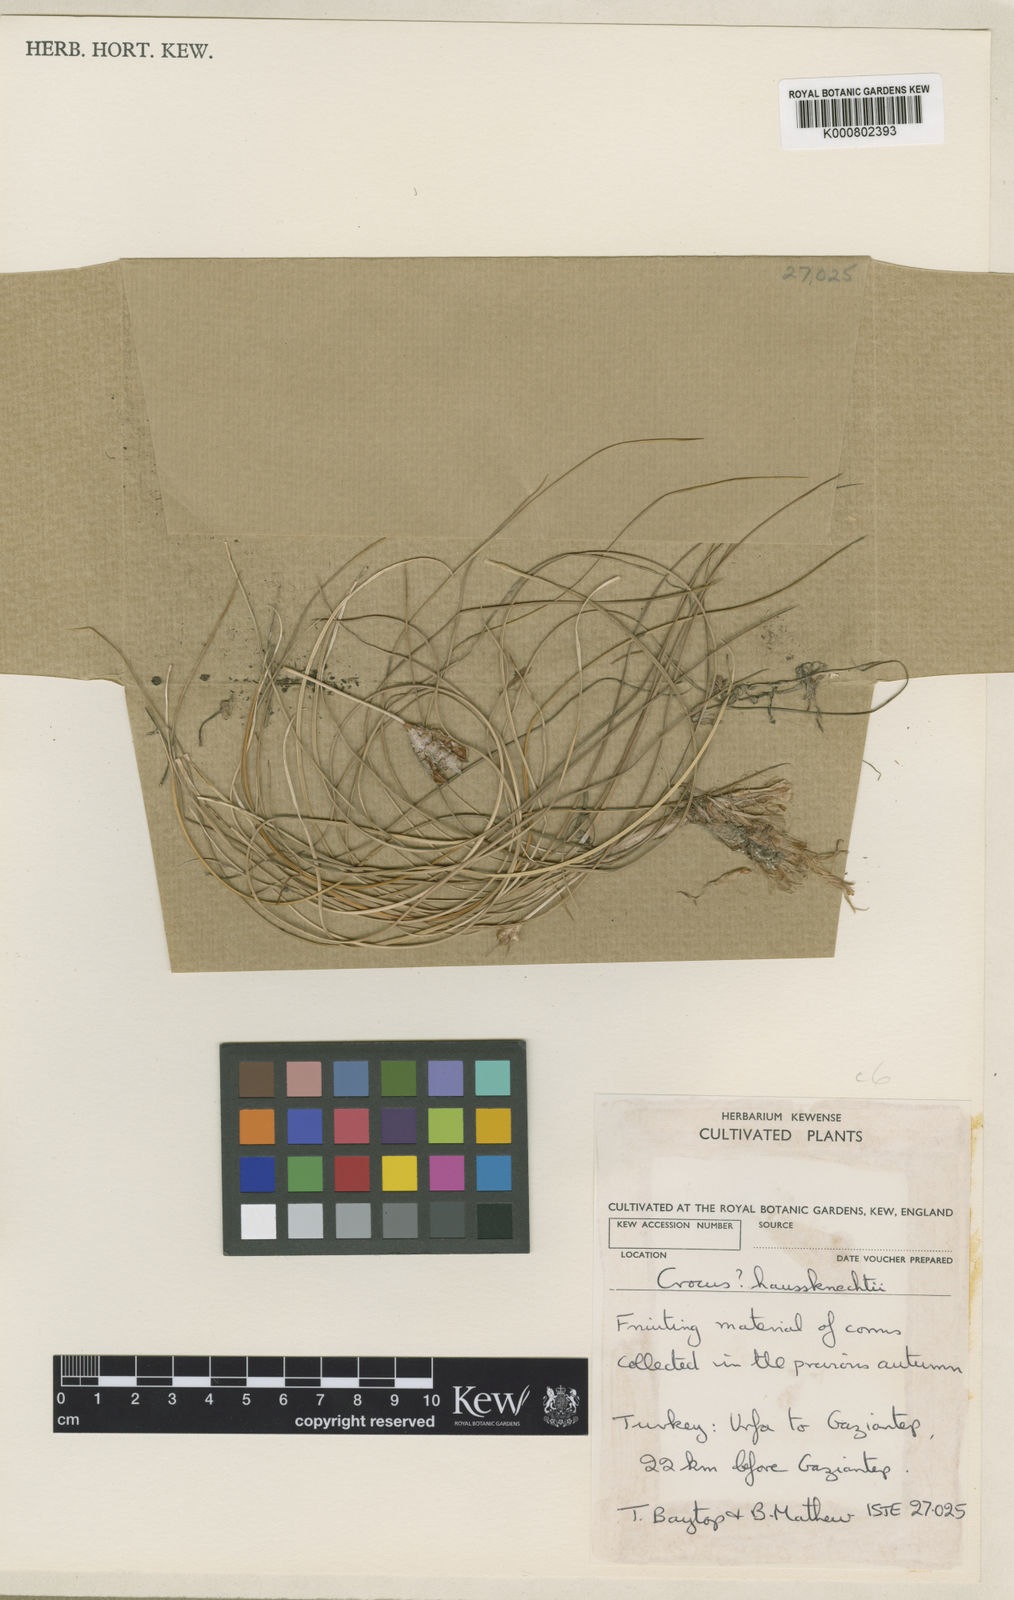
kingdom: Plantae
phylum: Tracheophyta
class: Liliopsida
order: Asparagales
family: Iridaceae
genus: Crocus
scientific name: Crocus turcicus
